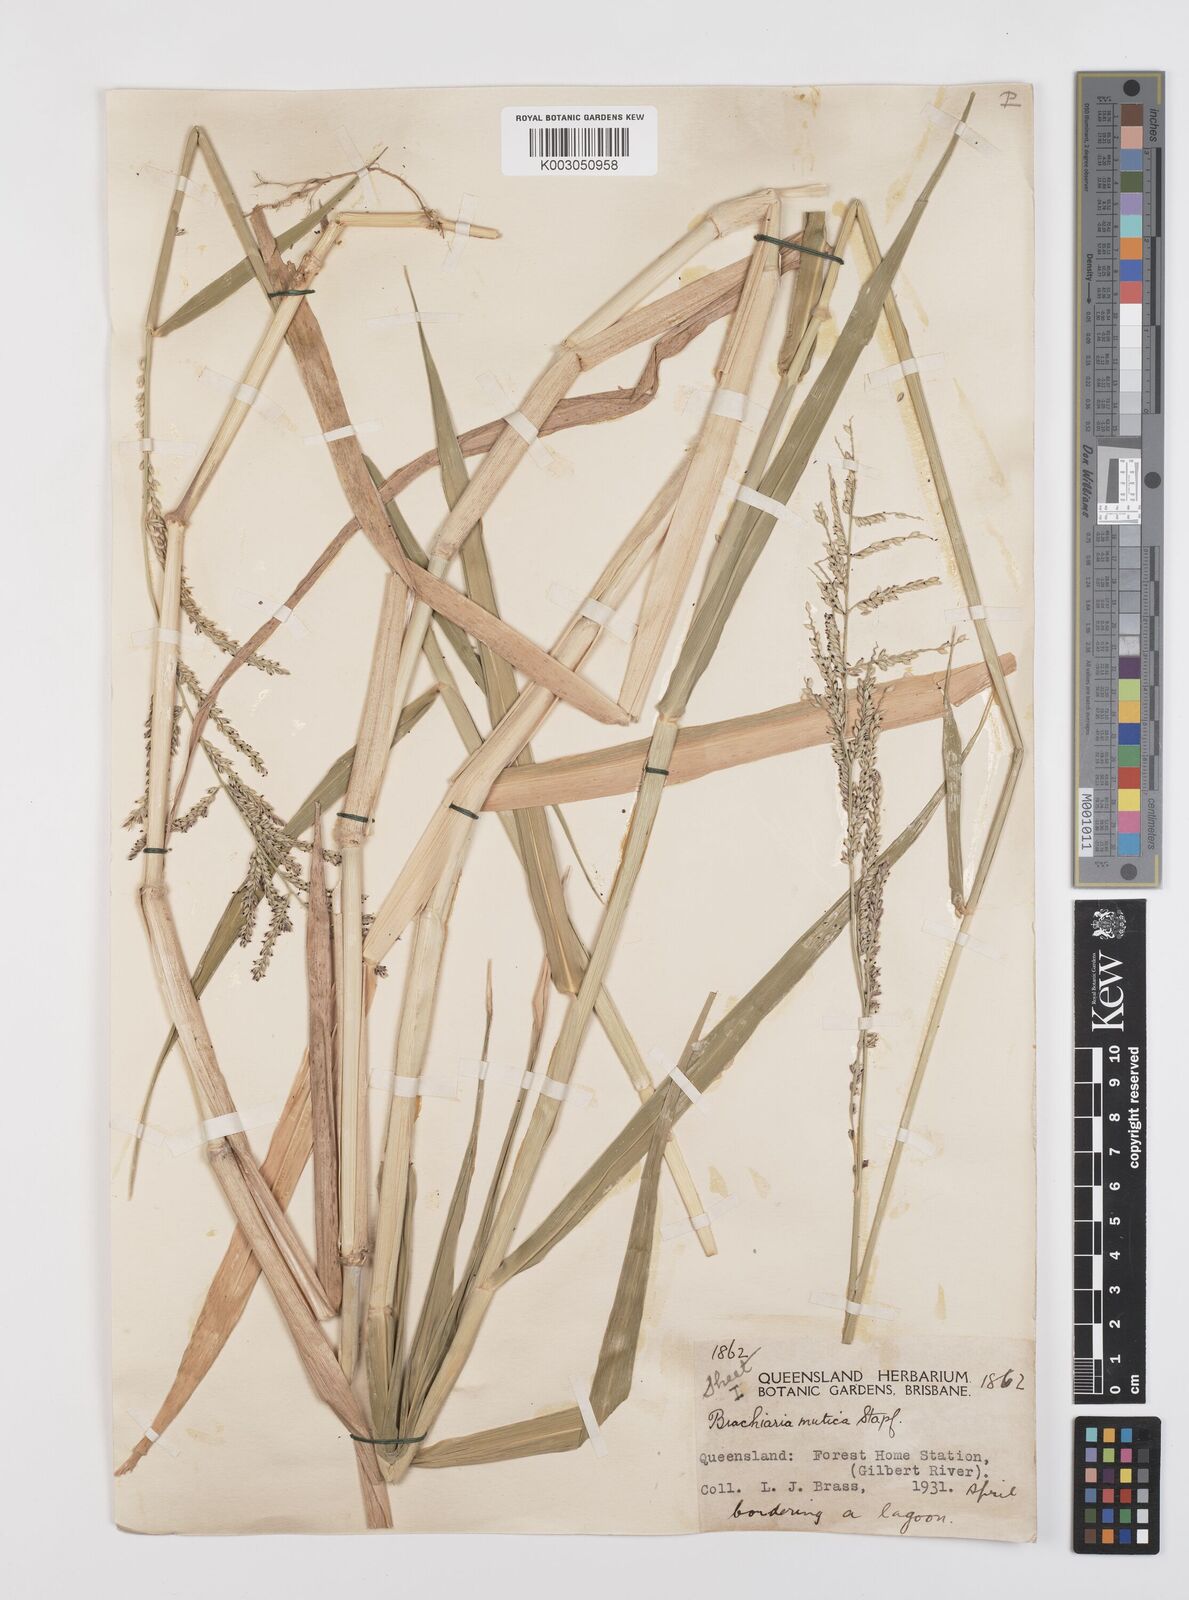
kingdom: Plantae
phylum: Tracheophyta
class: Liliopsida
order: Poales
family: Poaceae
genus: Urochloa
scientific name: Urochloa mutica
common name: Para grass
